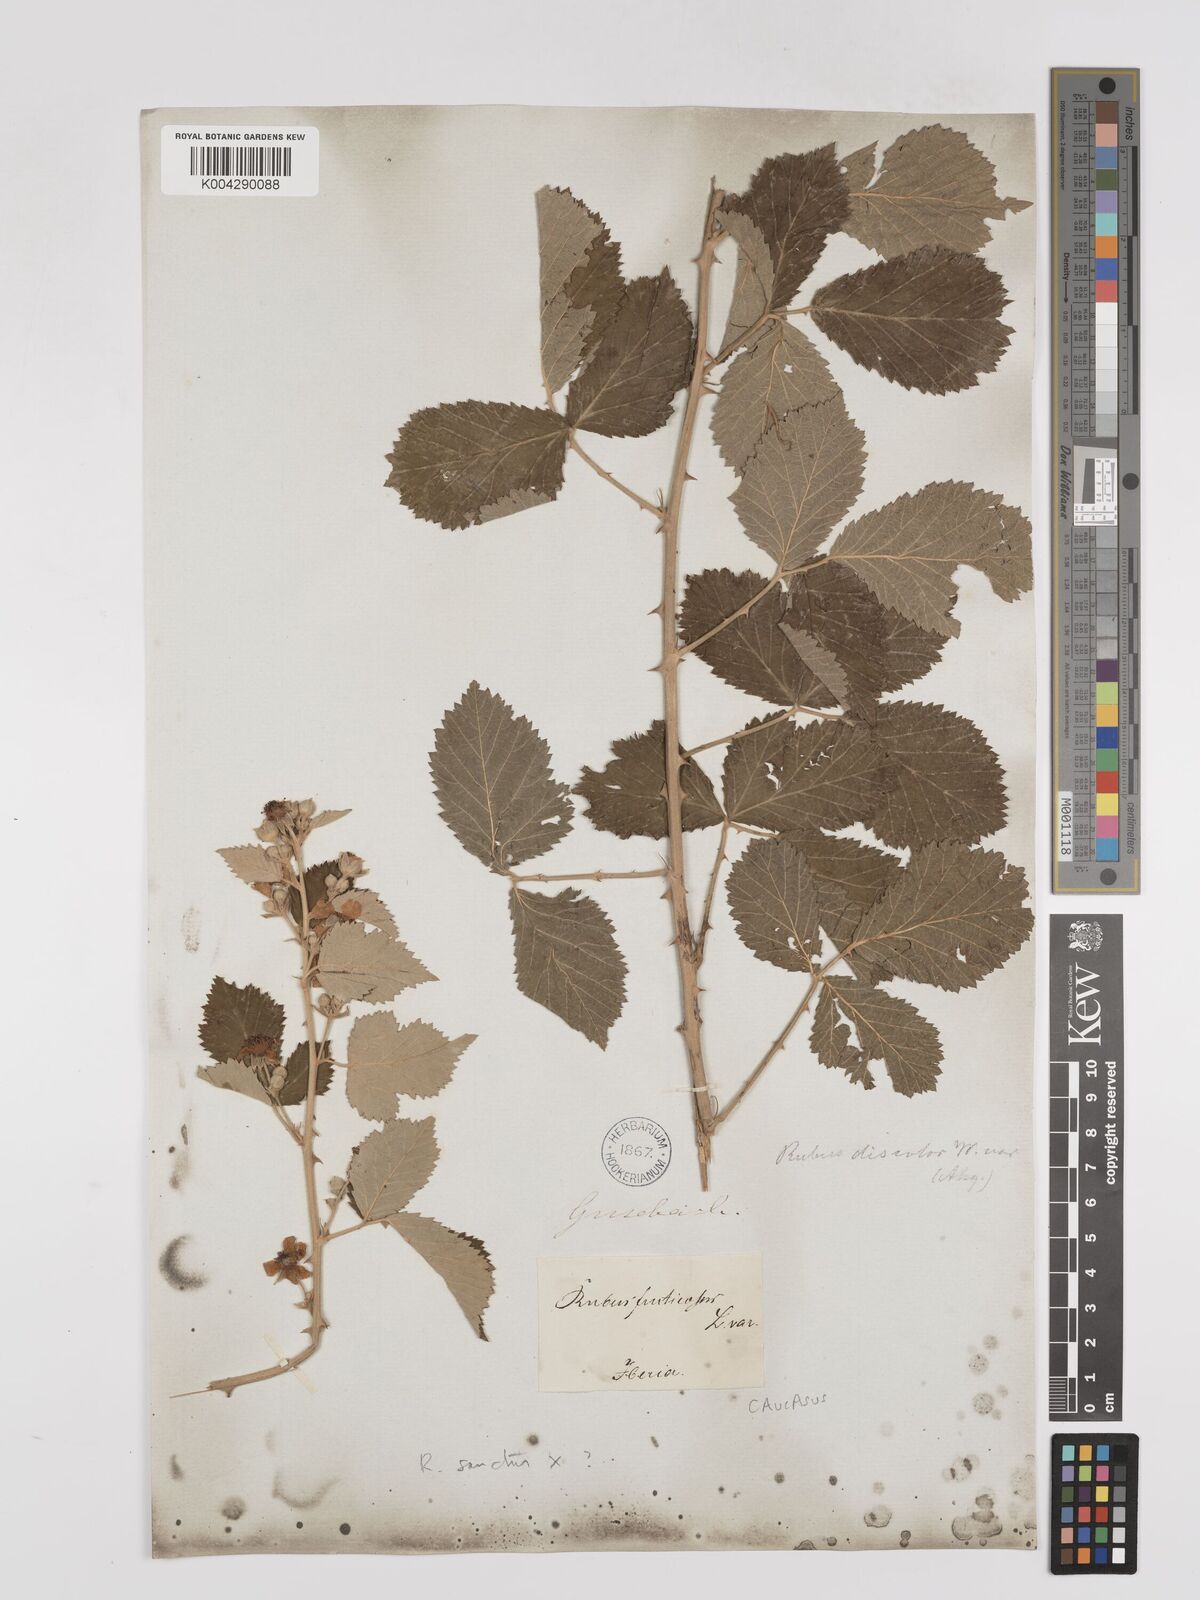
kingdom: Plantae
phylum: Tracheophyta
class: Magnoliopsida
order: Rosales
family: Rosaceae
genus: Rubus
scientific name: Rubus sanctus
